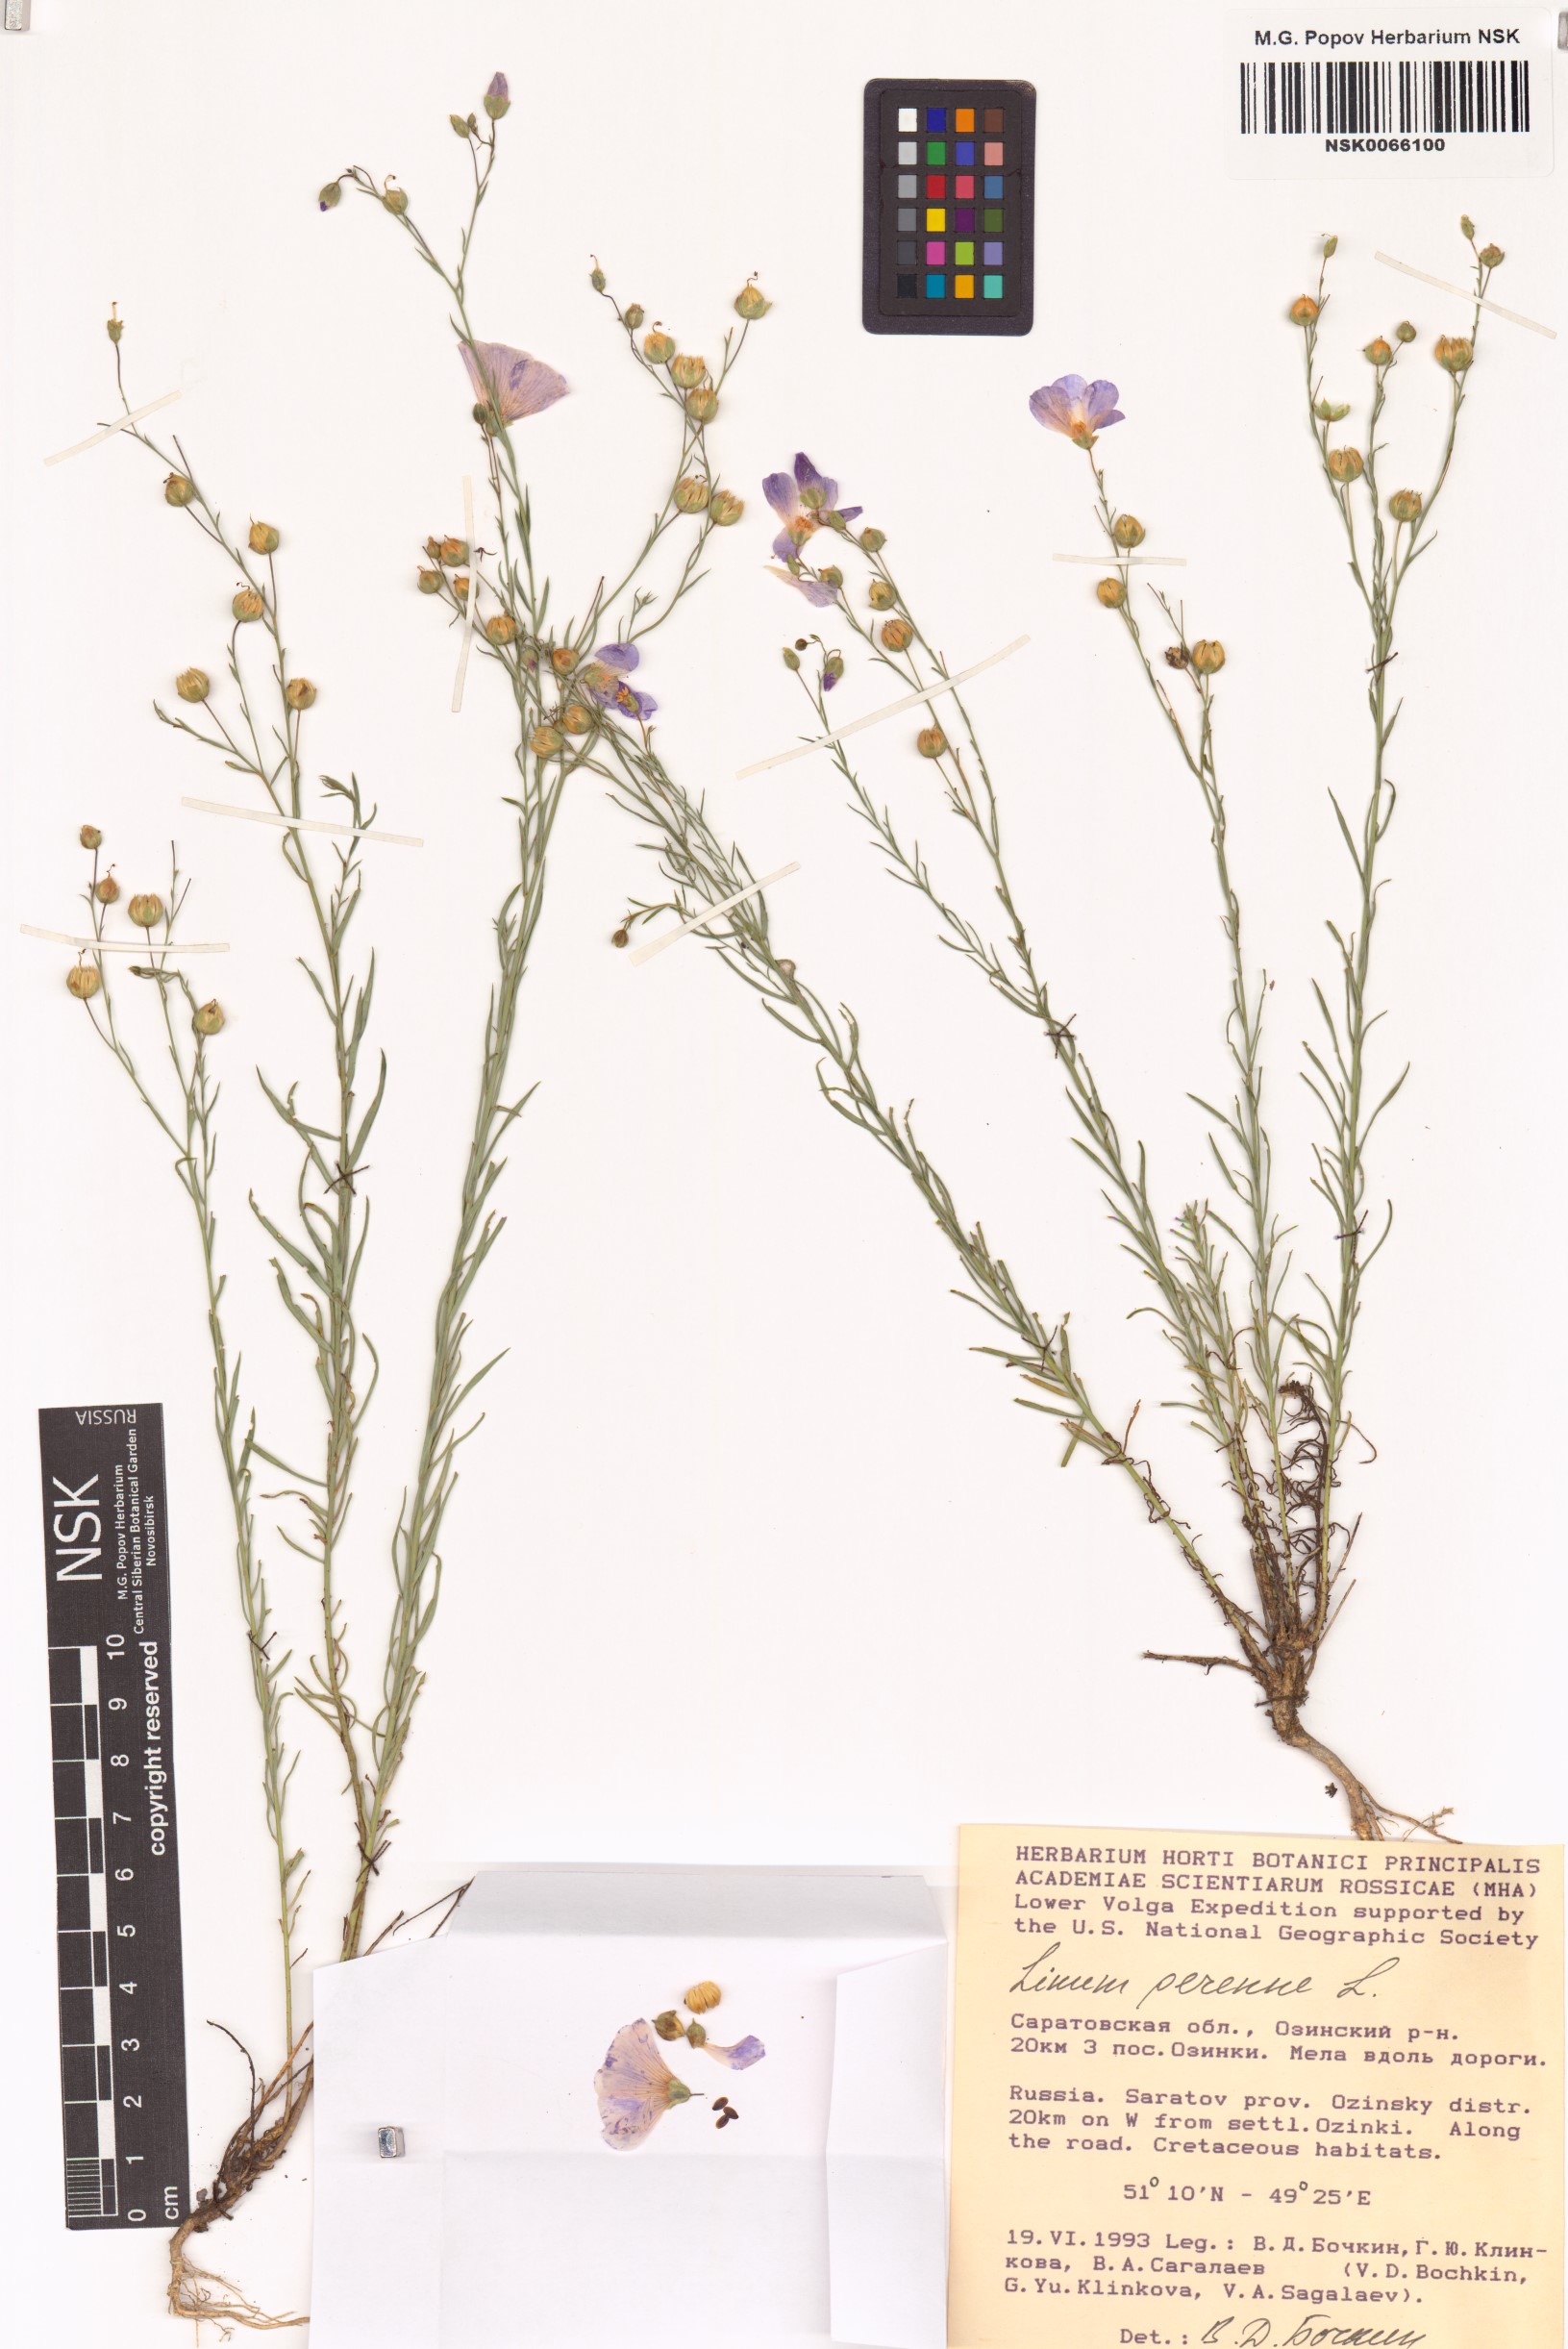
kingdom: Plantae
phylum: Tracheophyta
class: Magnoliopsida
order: Malpighiales
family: Linaceae
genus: Linum
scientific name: Linum perenne
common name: Blue flax
